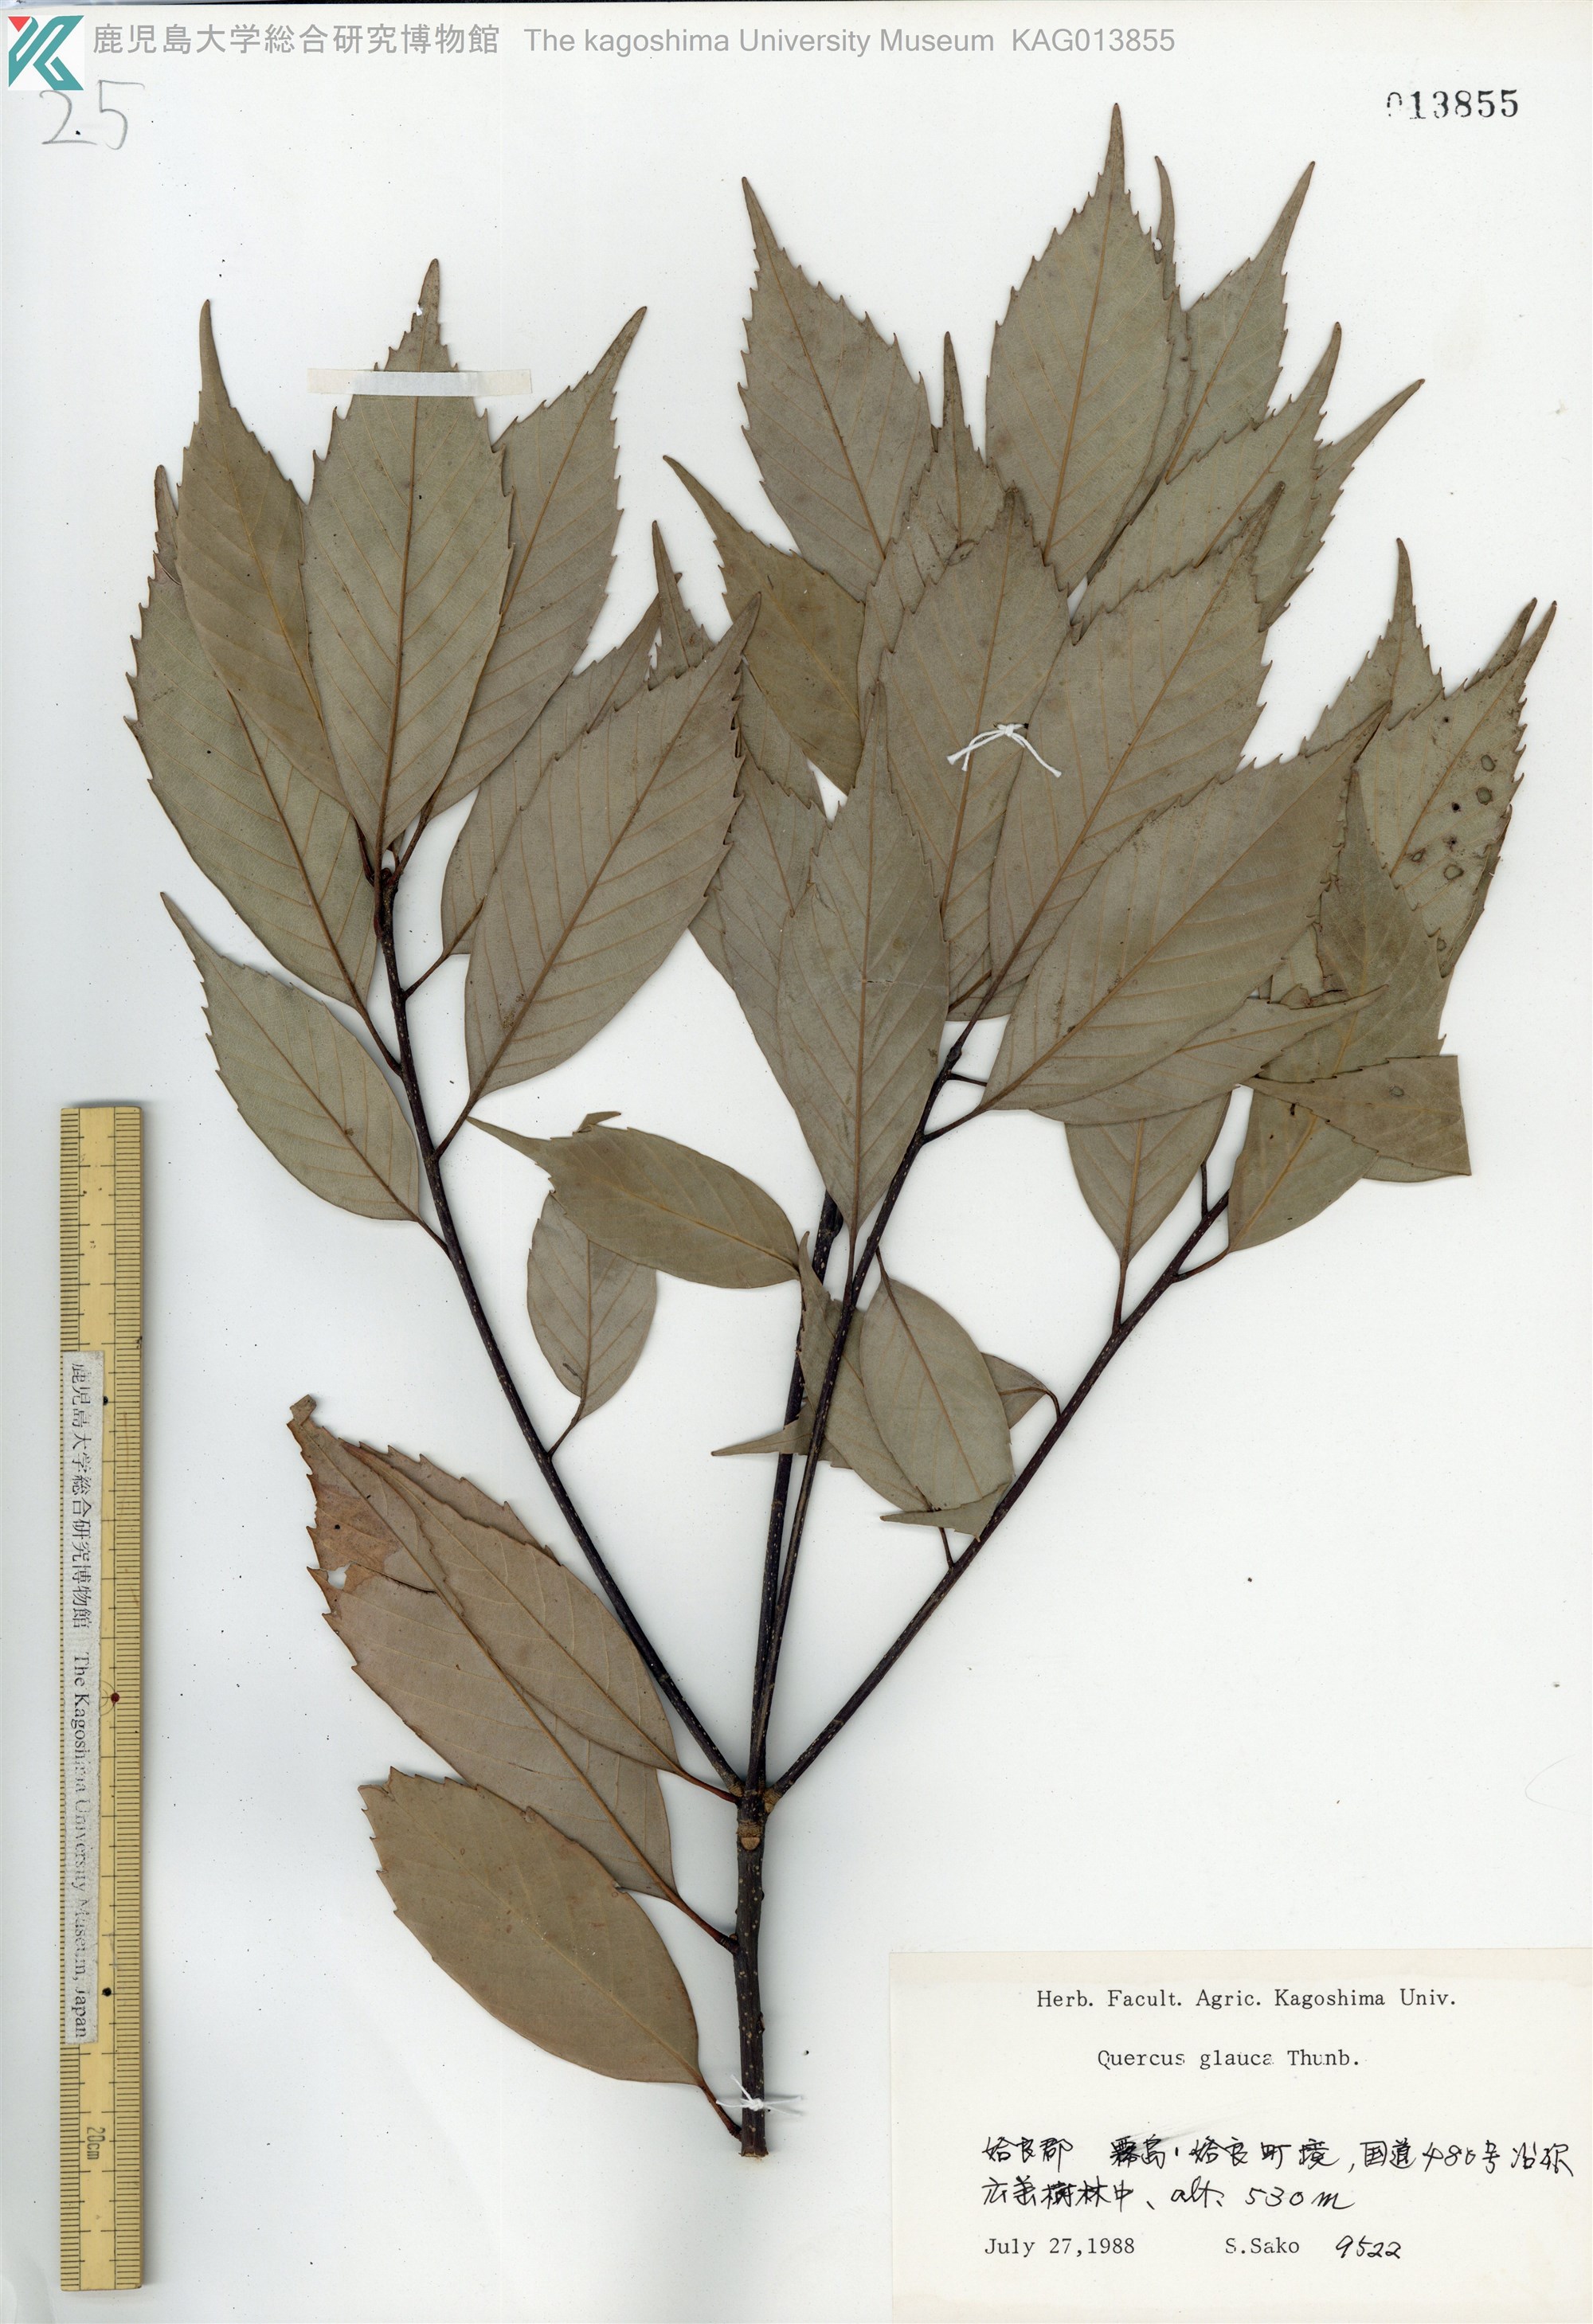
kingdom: Plantae
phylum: Tracheophyta
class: Magnoliopsida
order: Fagales
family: Fagaceae
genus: Quercus
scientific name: Quercus glauca
